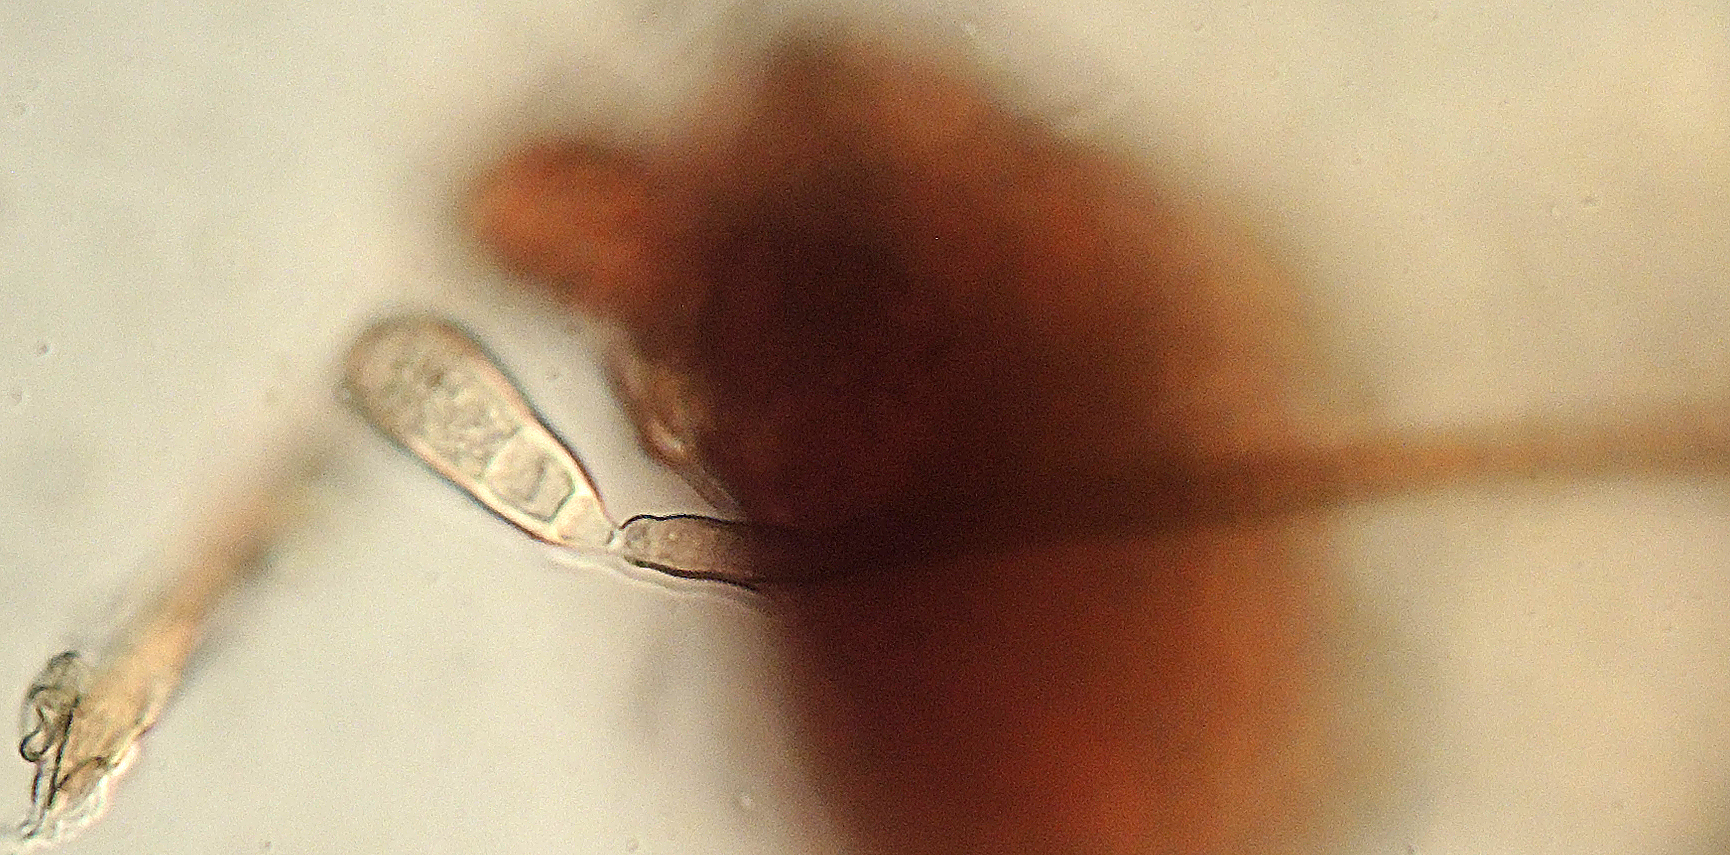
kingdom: Fungi
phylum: Ascomycota
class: Dothideomycetes
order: Pleosporales
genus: Sporidesmium
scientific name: Sporidesmium doliiforme
